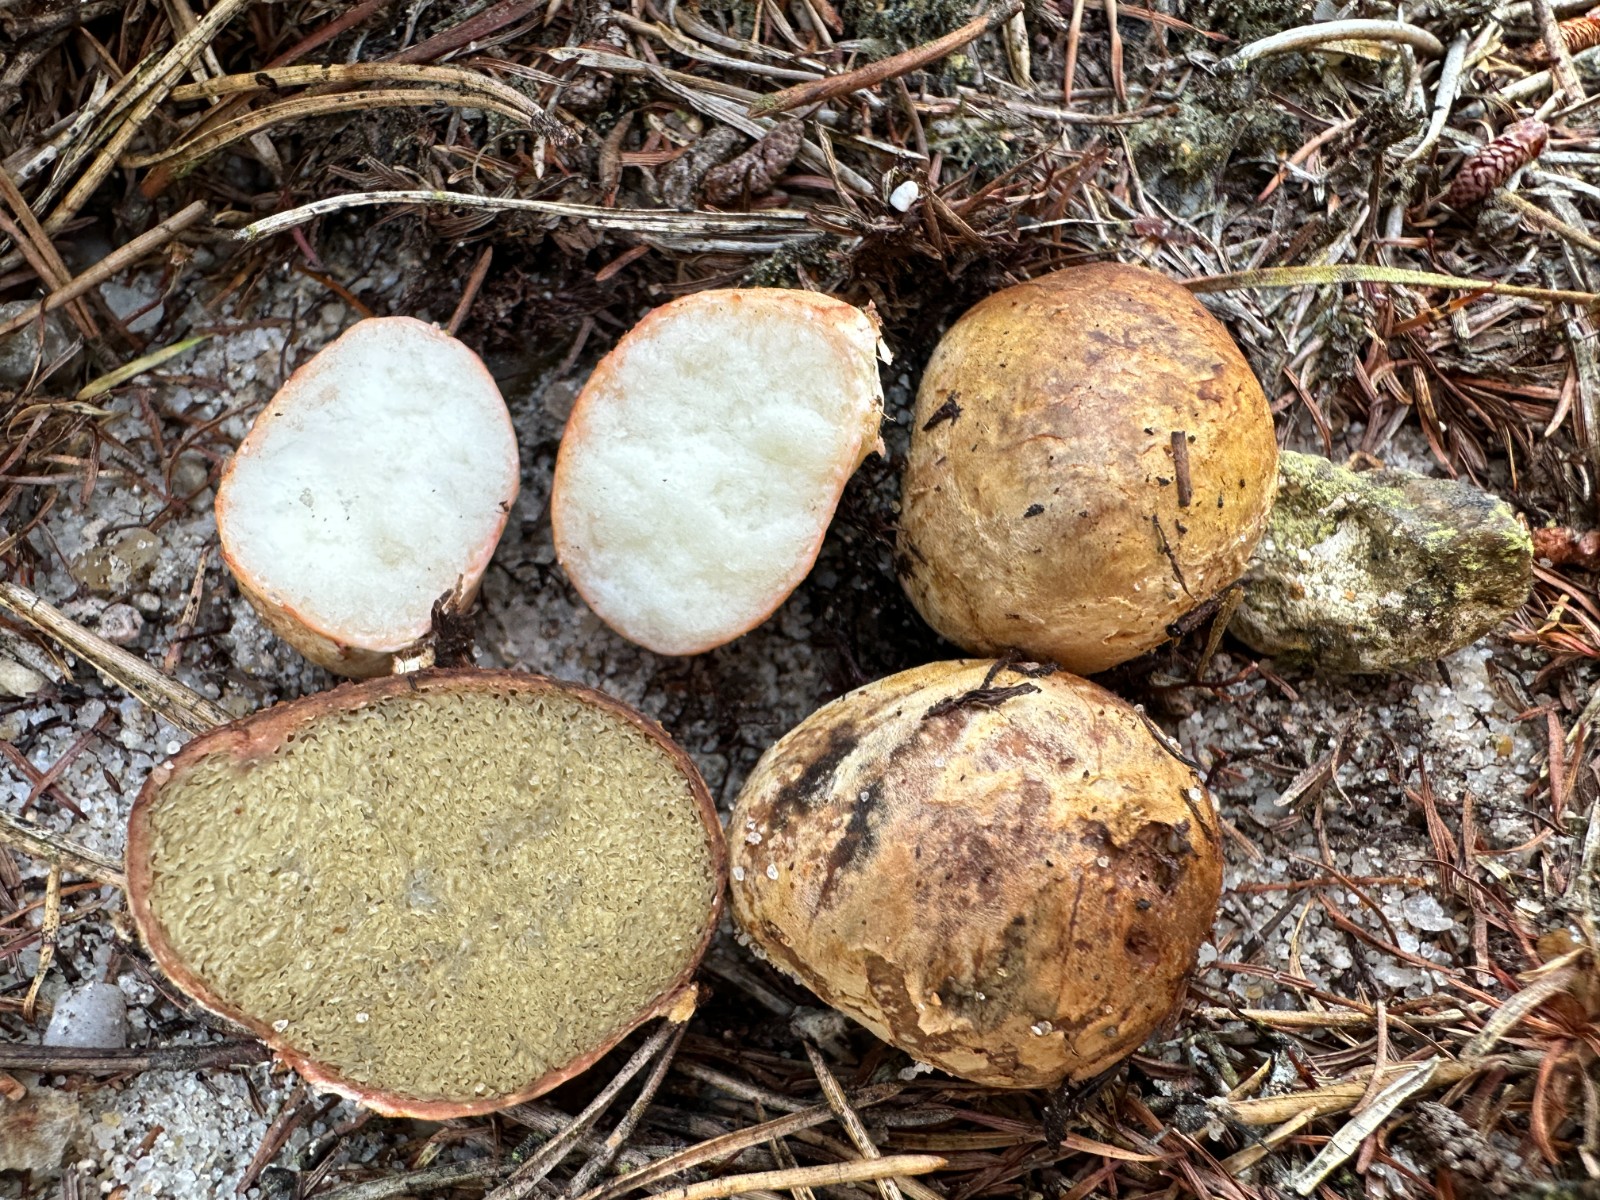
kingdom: Fungi
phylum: Basidiomycota
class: Agaricomycetes
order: Boletales
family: Rhizopogonaceae
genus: Rhizopogon
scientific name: Rhizopogon pseudoroseolus
